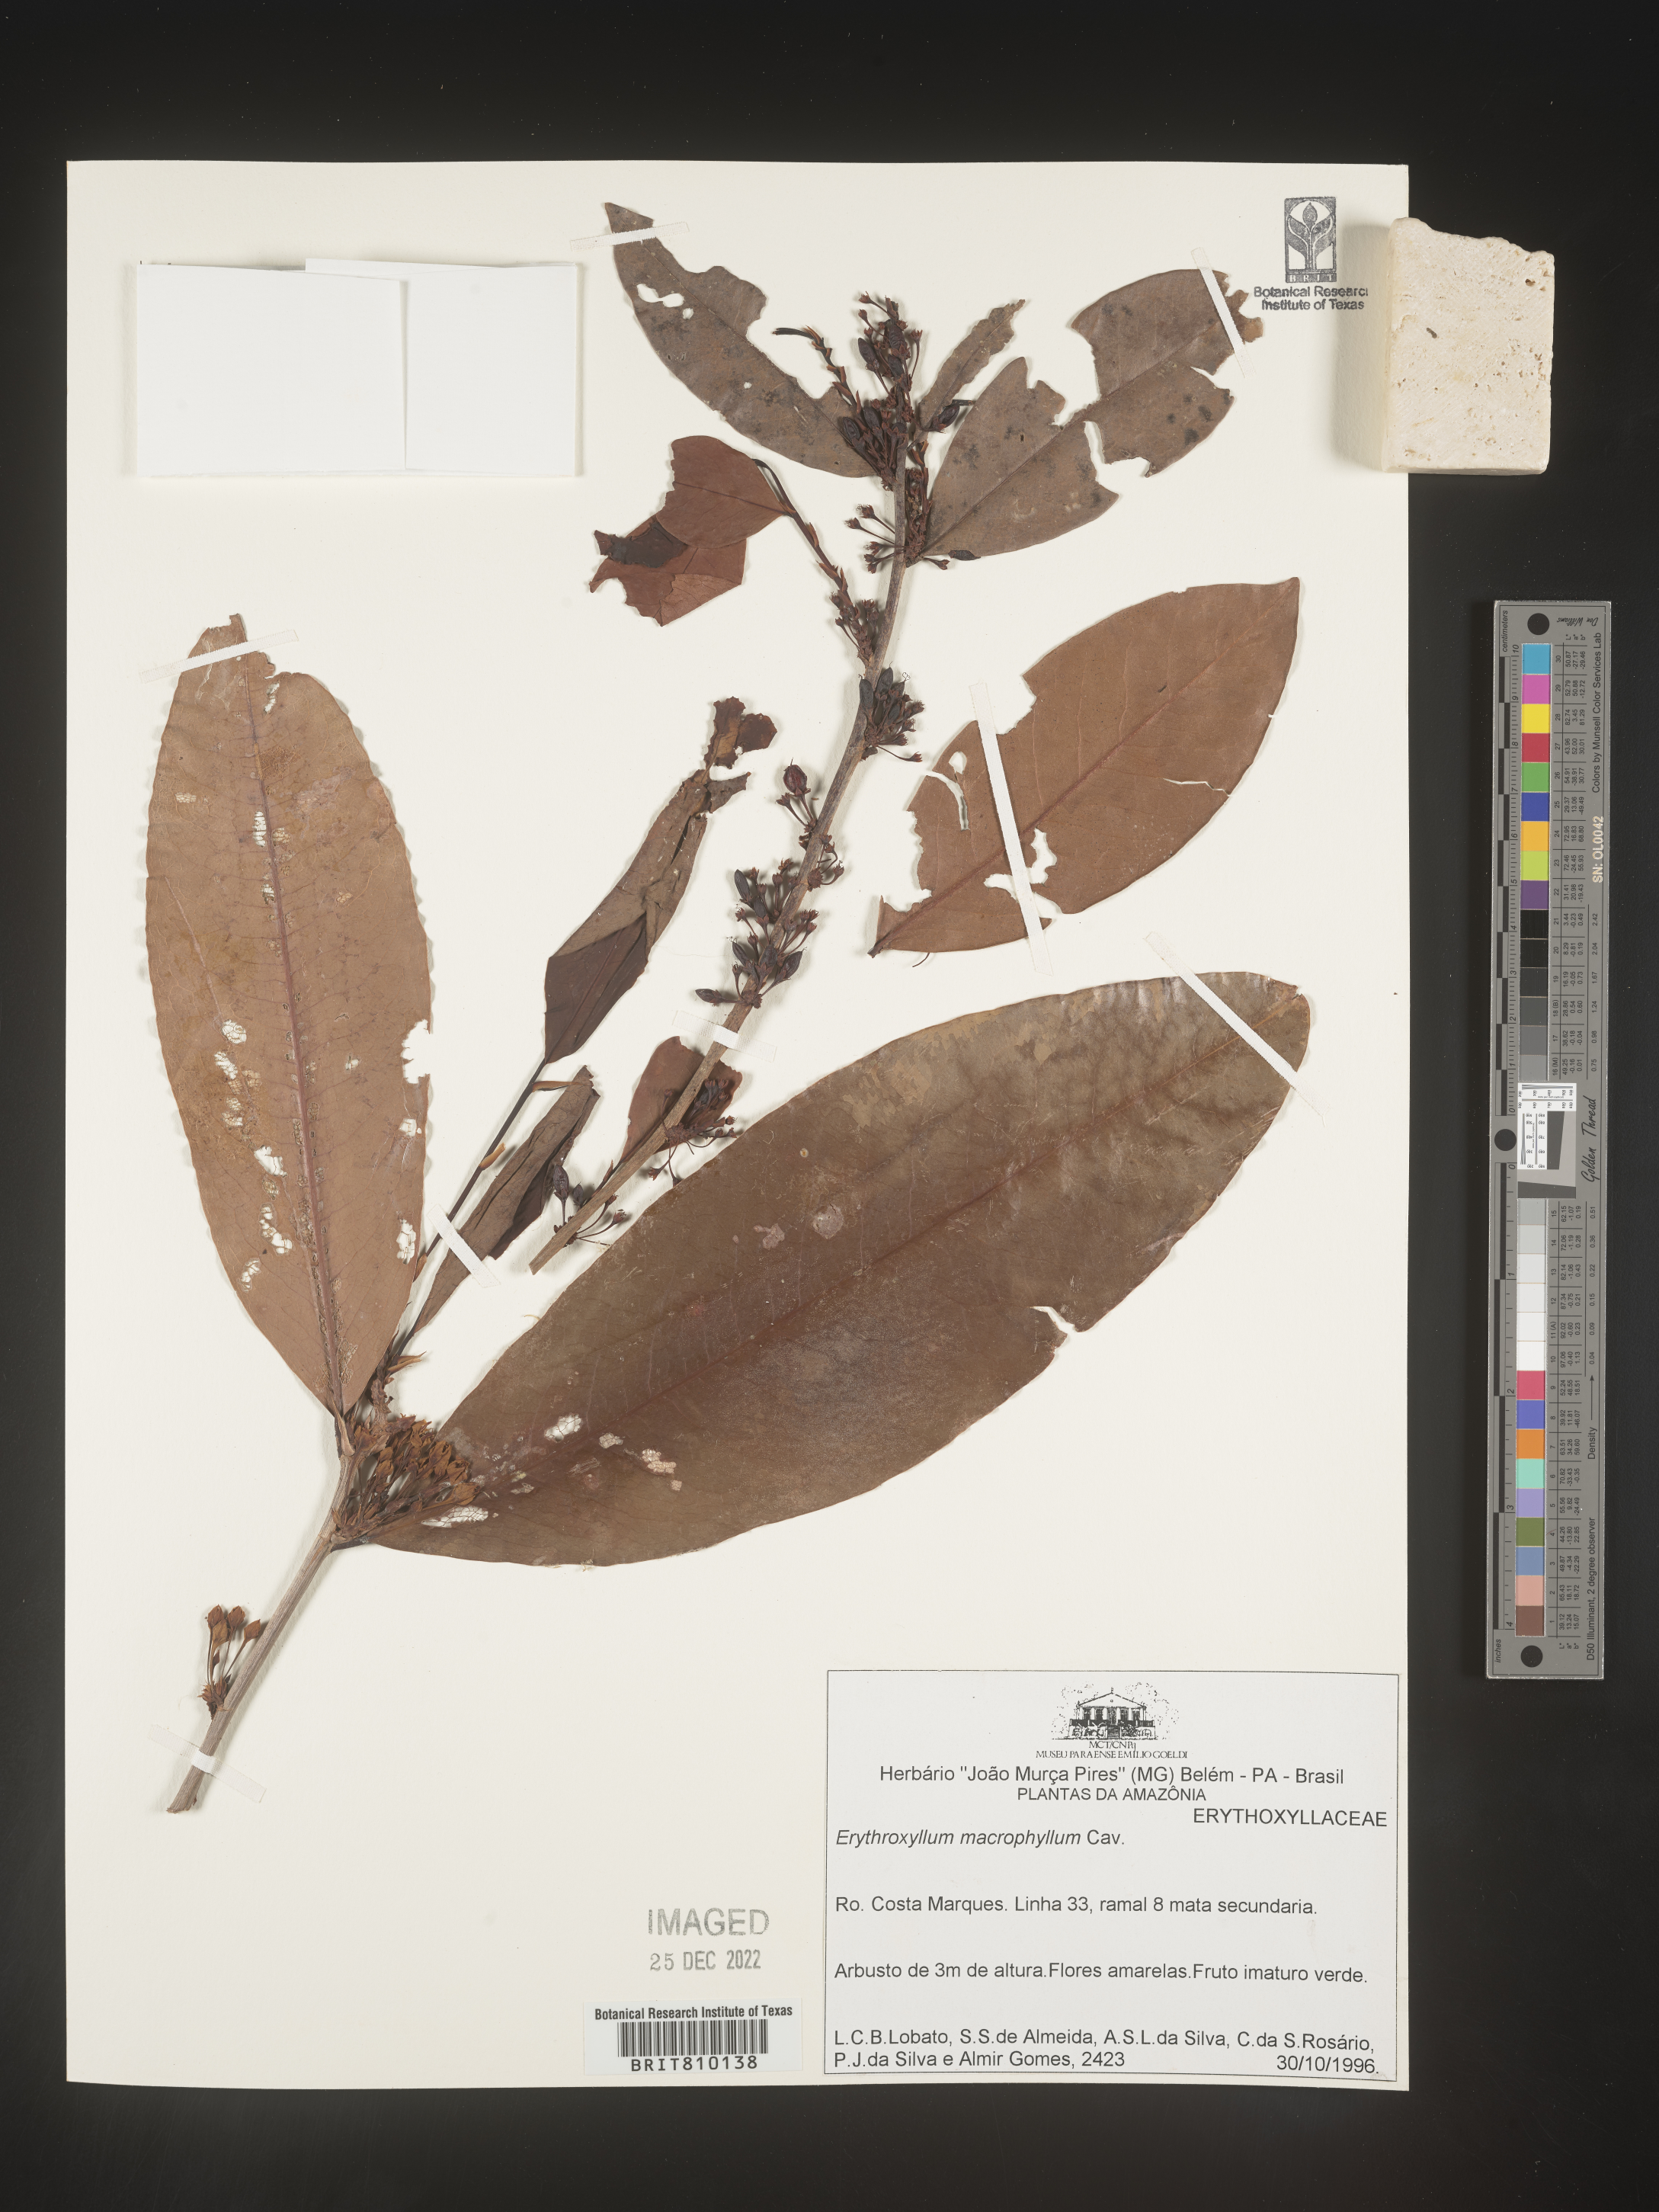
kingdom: Plantae
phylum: Tracheophyta
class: Magnoliopsida
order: Malpighiales
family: Erythroxylaceae
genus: Erythroxylum
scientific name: Erythroxylum
